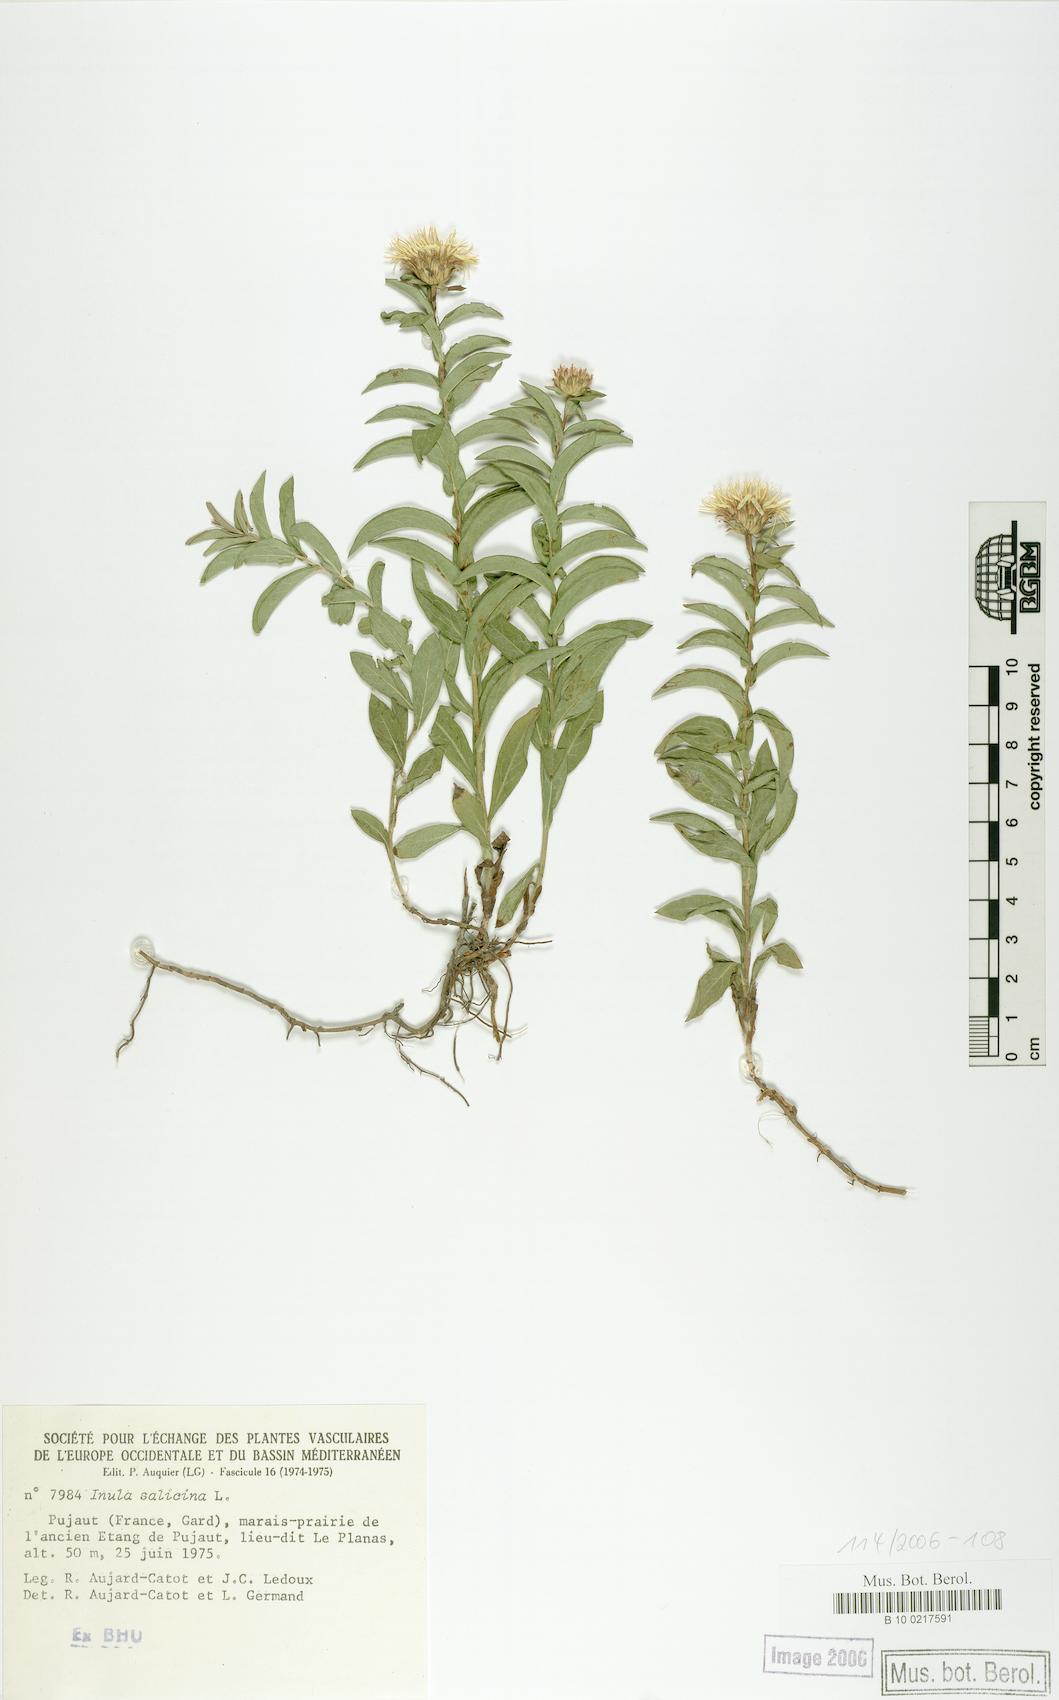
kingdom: Plantae
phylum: Tracheophyta
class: Magnoliopsida
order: Asterales
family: Asteraceae
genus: Pentanema
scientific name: Pentanema salicinum
